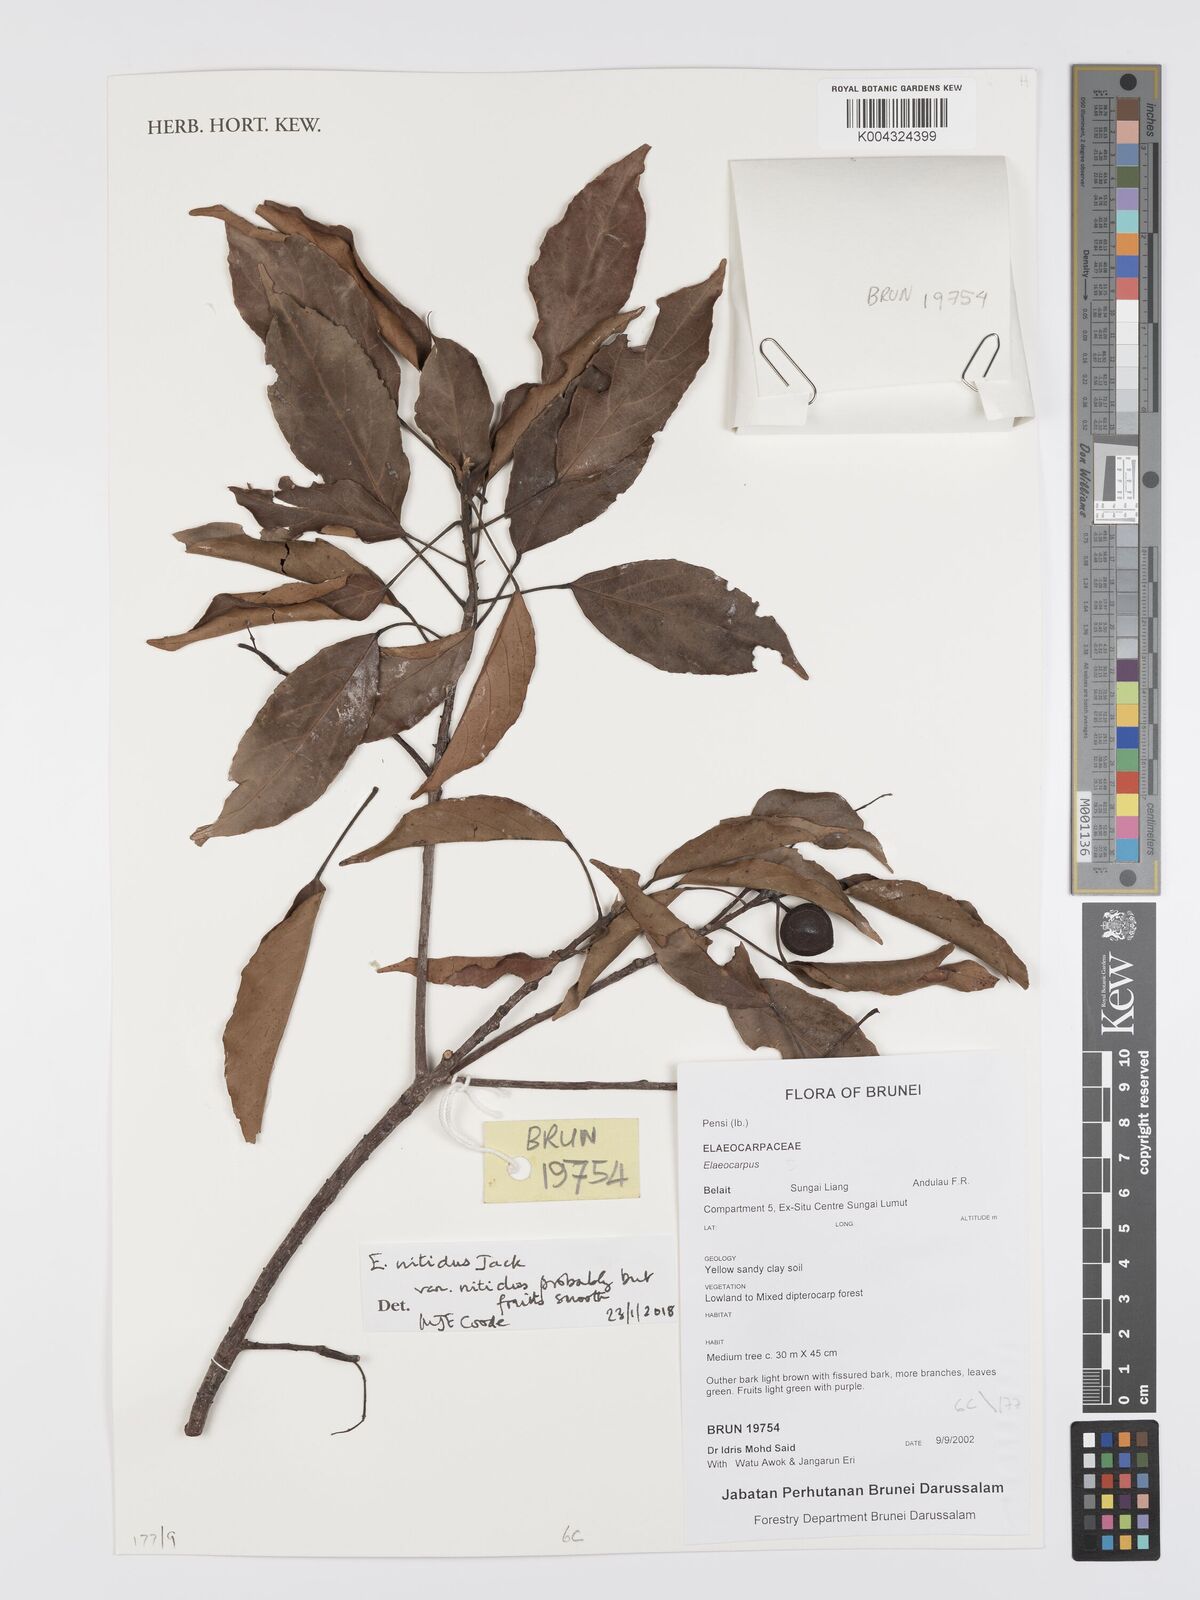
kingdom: Plantae
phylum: Tracheophyta
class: Magnoliopsida
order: Oxalidales
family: Elaeocarpaceae
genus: Elaeocarpus
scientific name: Elaeocarpus nitidus
